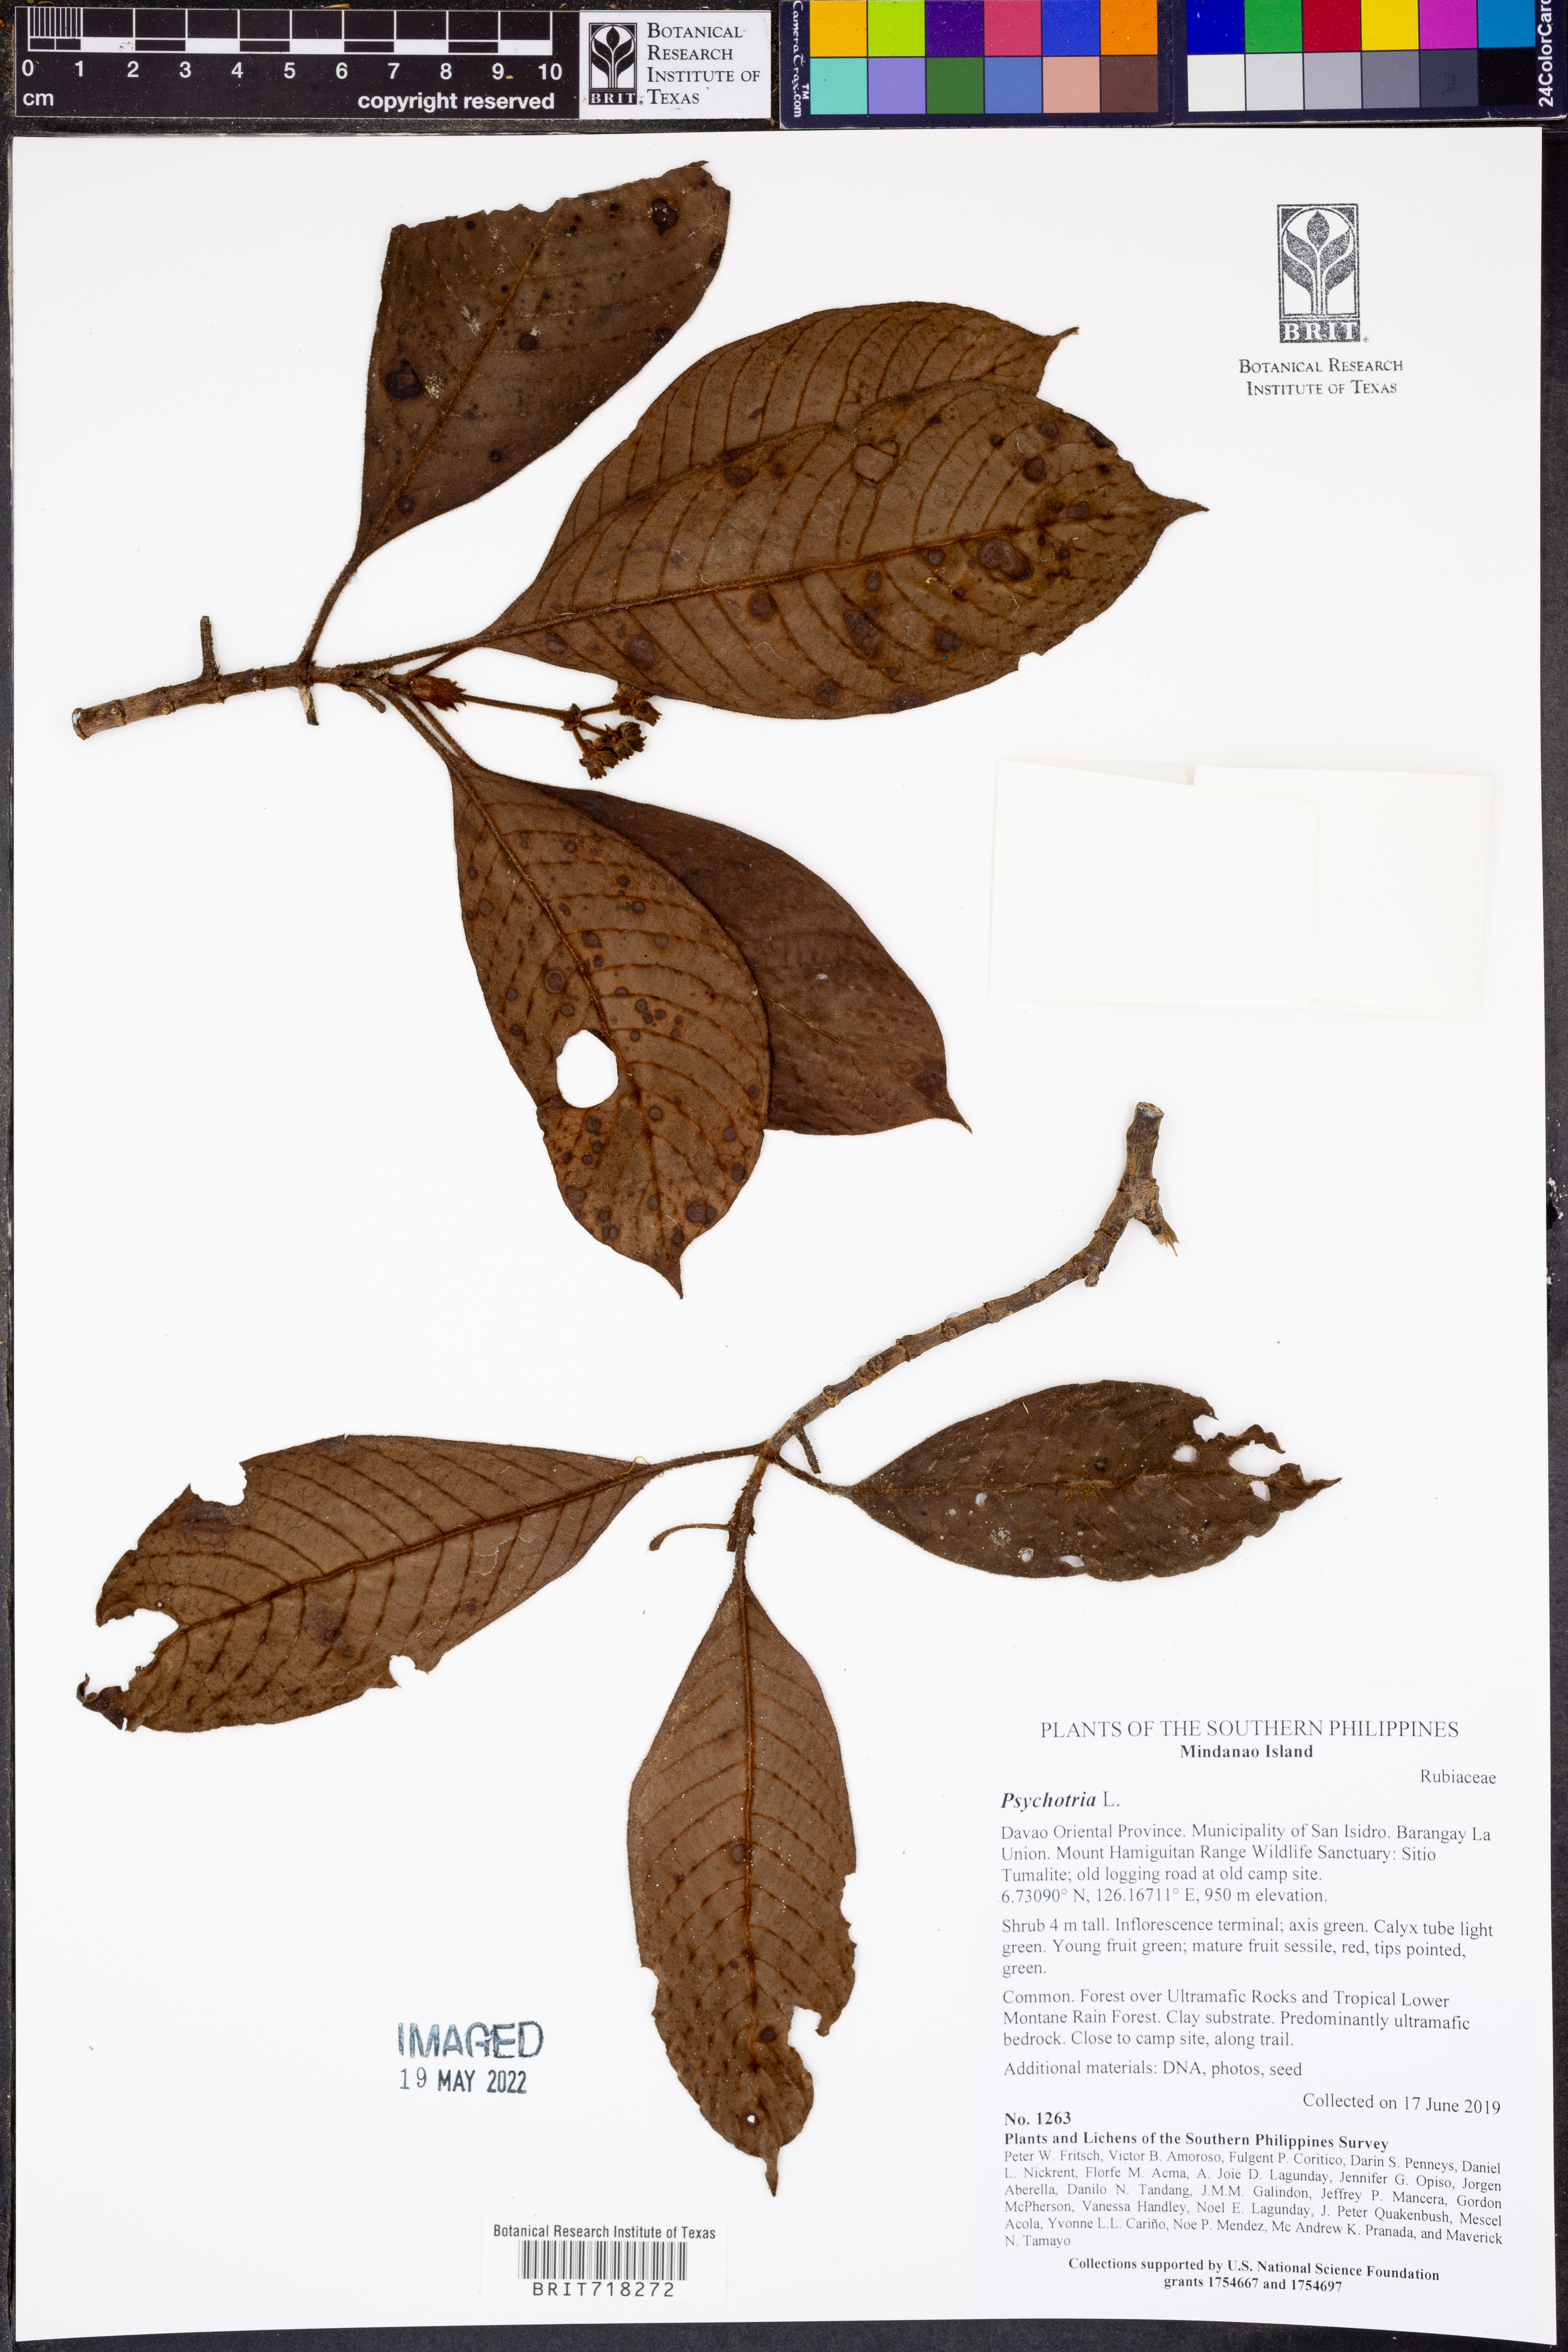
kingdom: Plantae
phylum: Tracheophyta
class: Magnoliopsida
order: Gentianales
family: Rubiaceae
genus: Psychotria
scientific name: Psychotria
